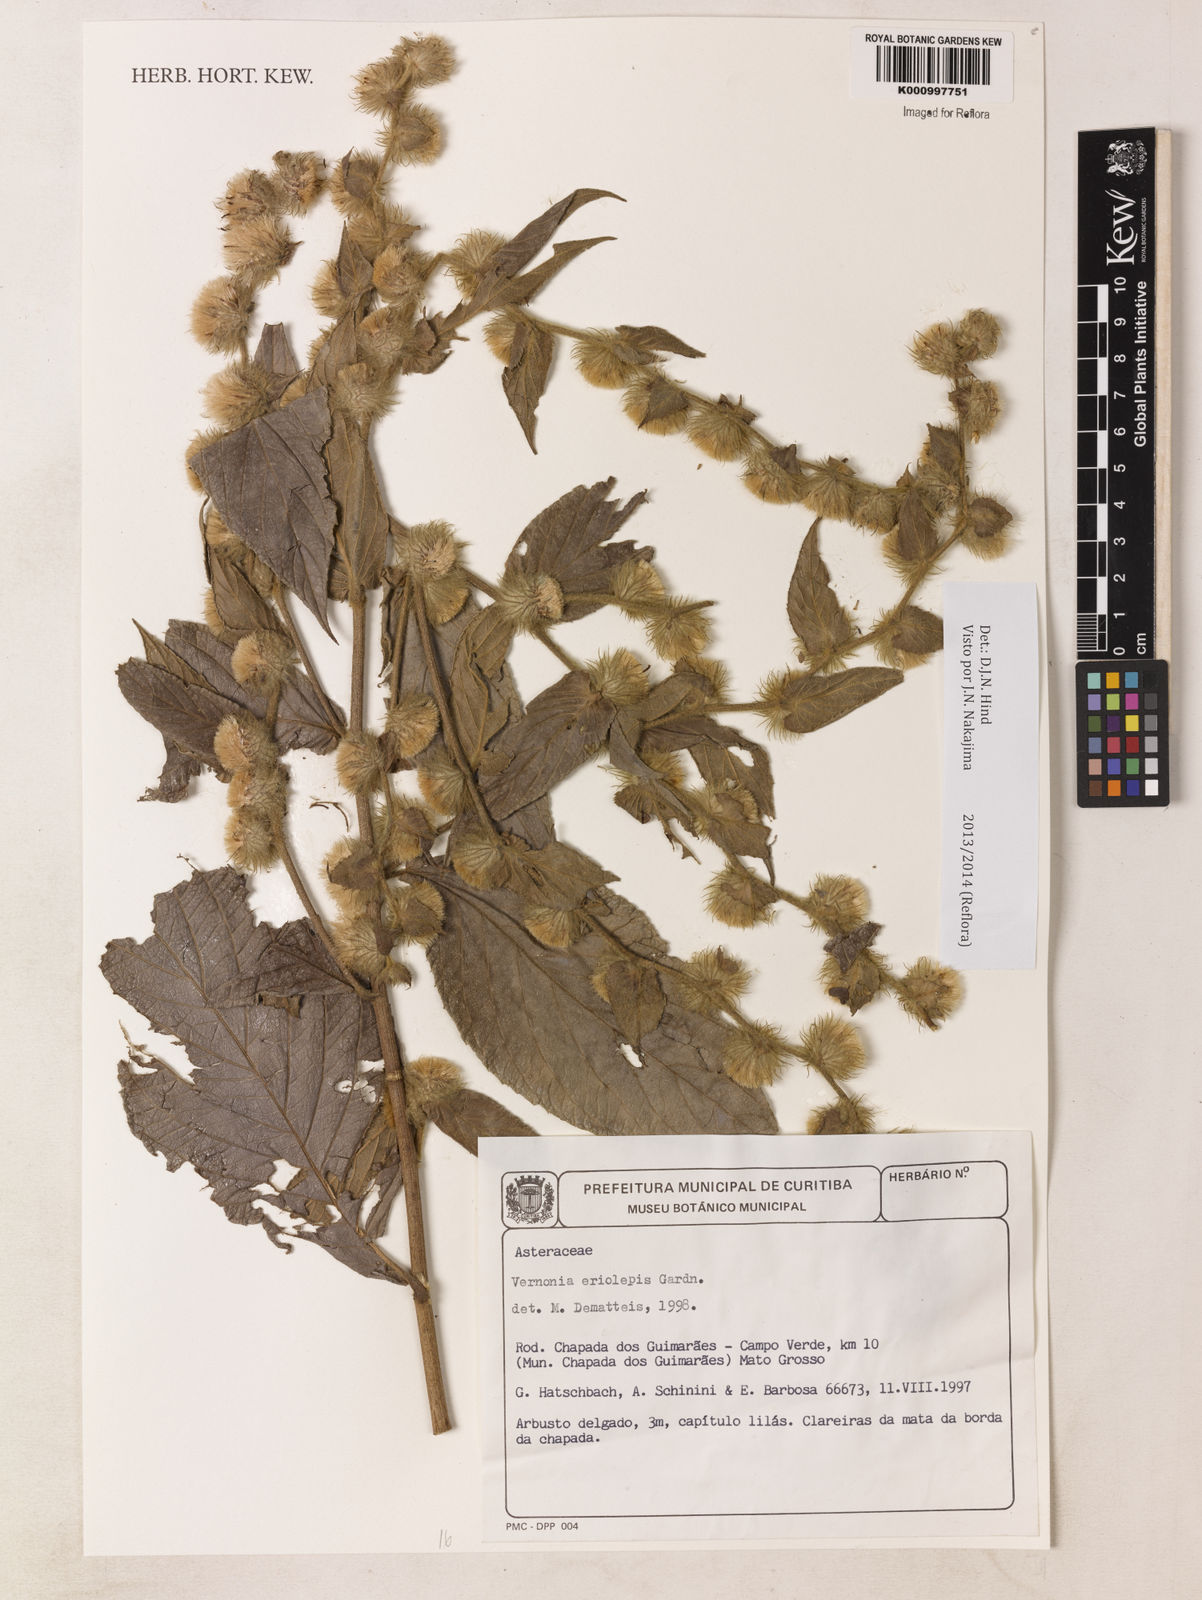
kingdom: Plantae
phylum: Tracheophyta
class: Magnoliopsida
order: Asterales
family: Asteraceae
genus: Lepidaploa
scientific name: Lepidaploa eriolepis
